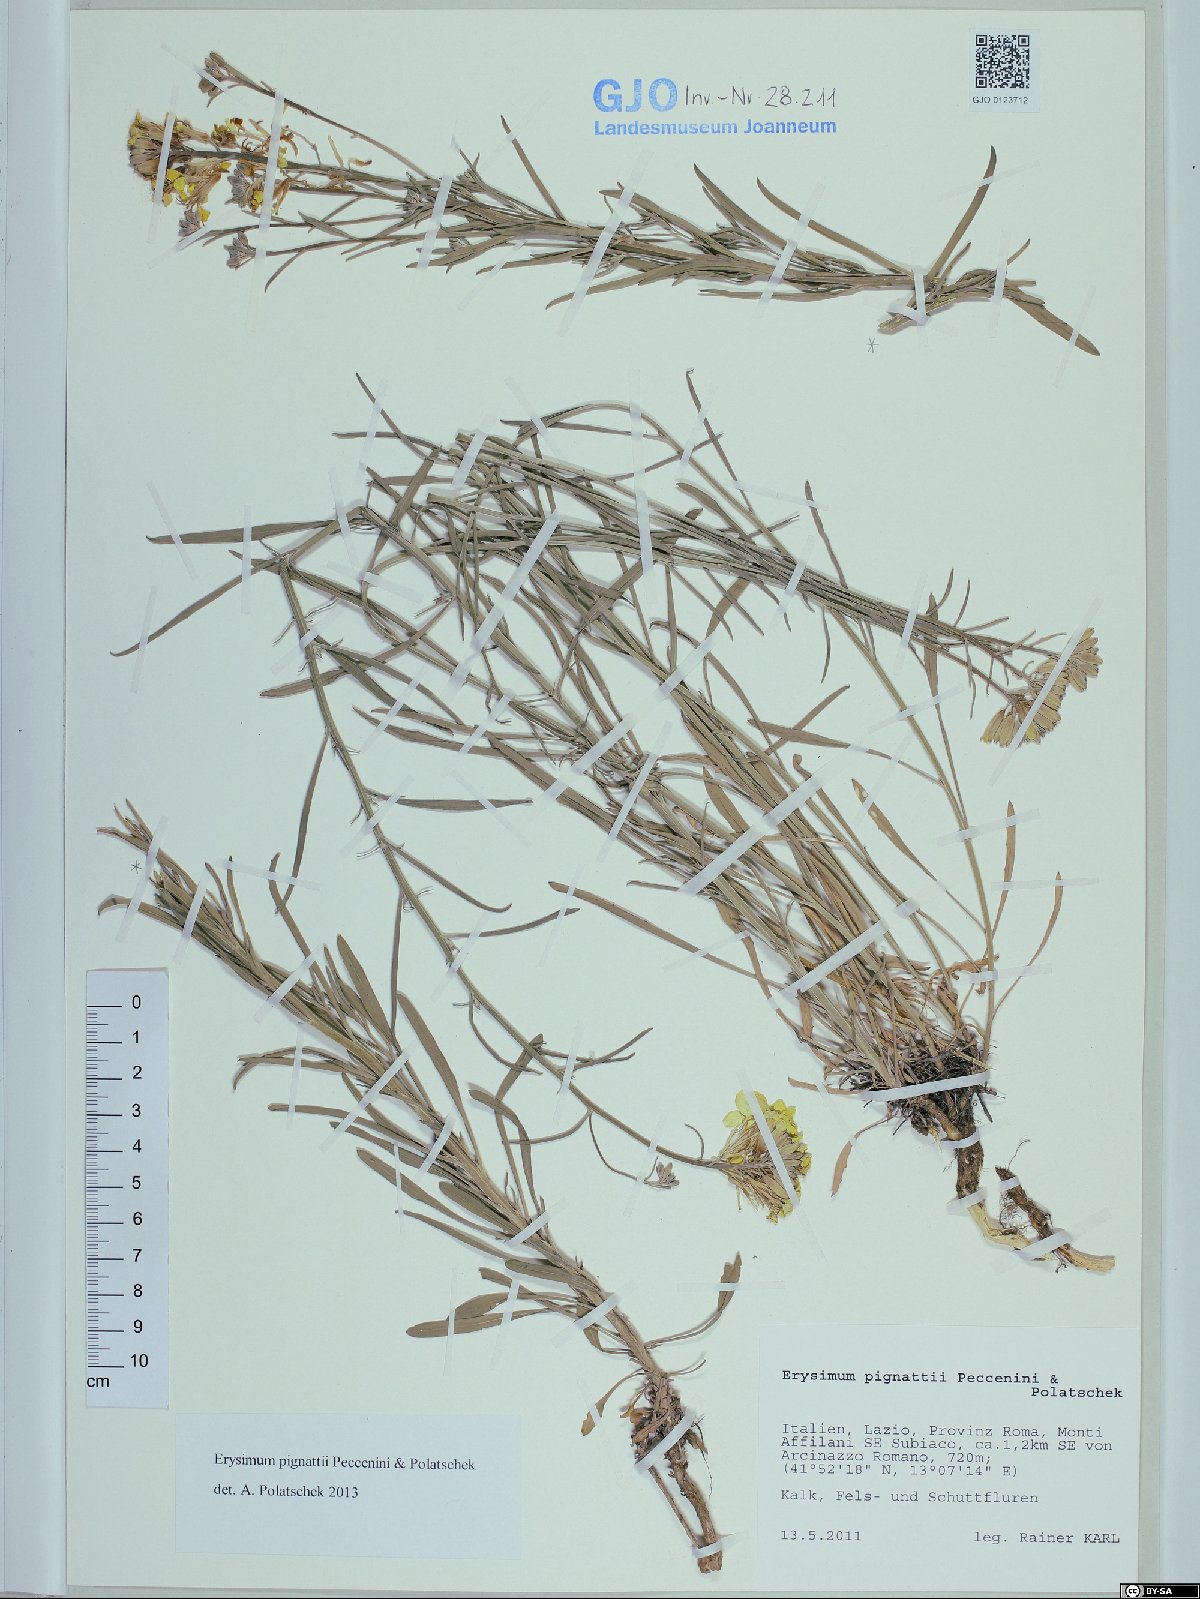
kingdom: Plantae
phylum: Tracheophyta
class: Magnoliopsida
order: Brassicales
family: Brassicaceae
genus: Erysimum
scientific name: Erysimum pignattii
